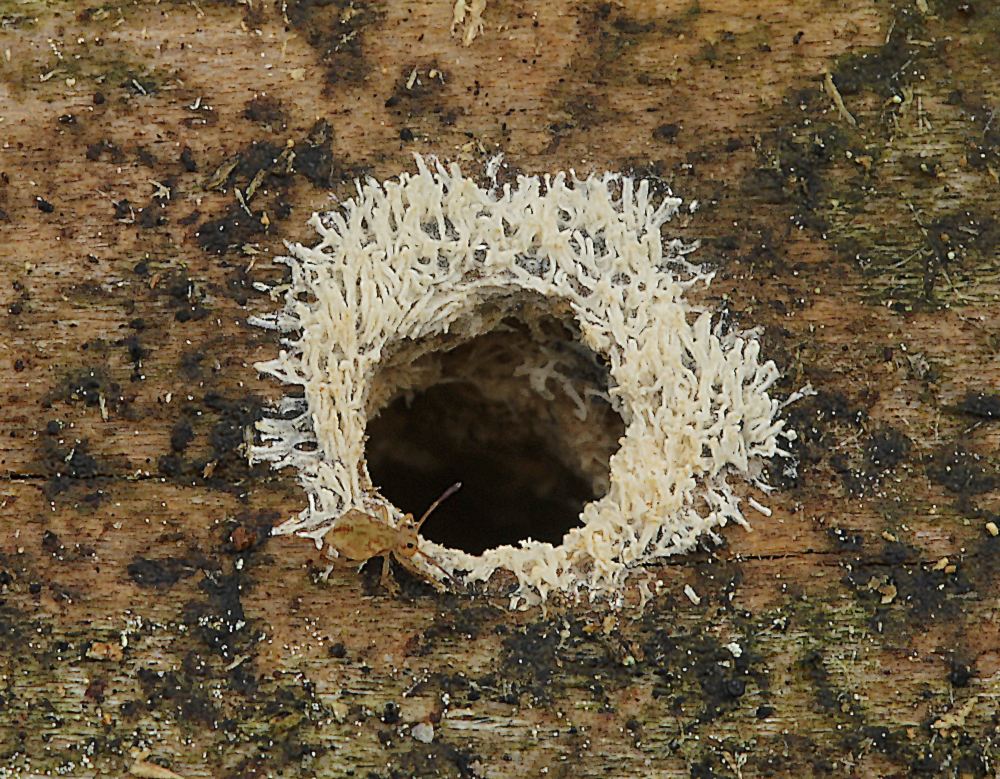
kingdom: Protozoa
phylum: Mycetozoa
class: Protosteliomycetes
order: Ceratiomyxales
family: Ceratiomyxaceae
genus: Ceratiomyxa
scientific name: Ceratiomyxa fruticulosa
